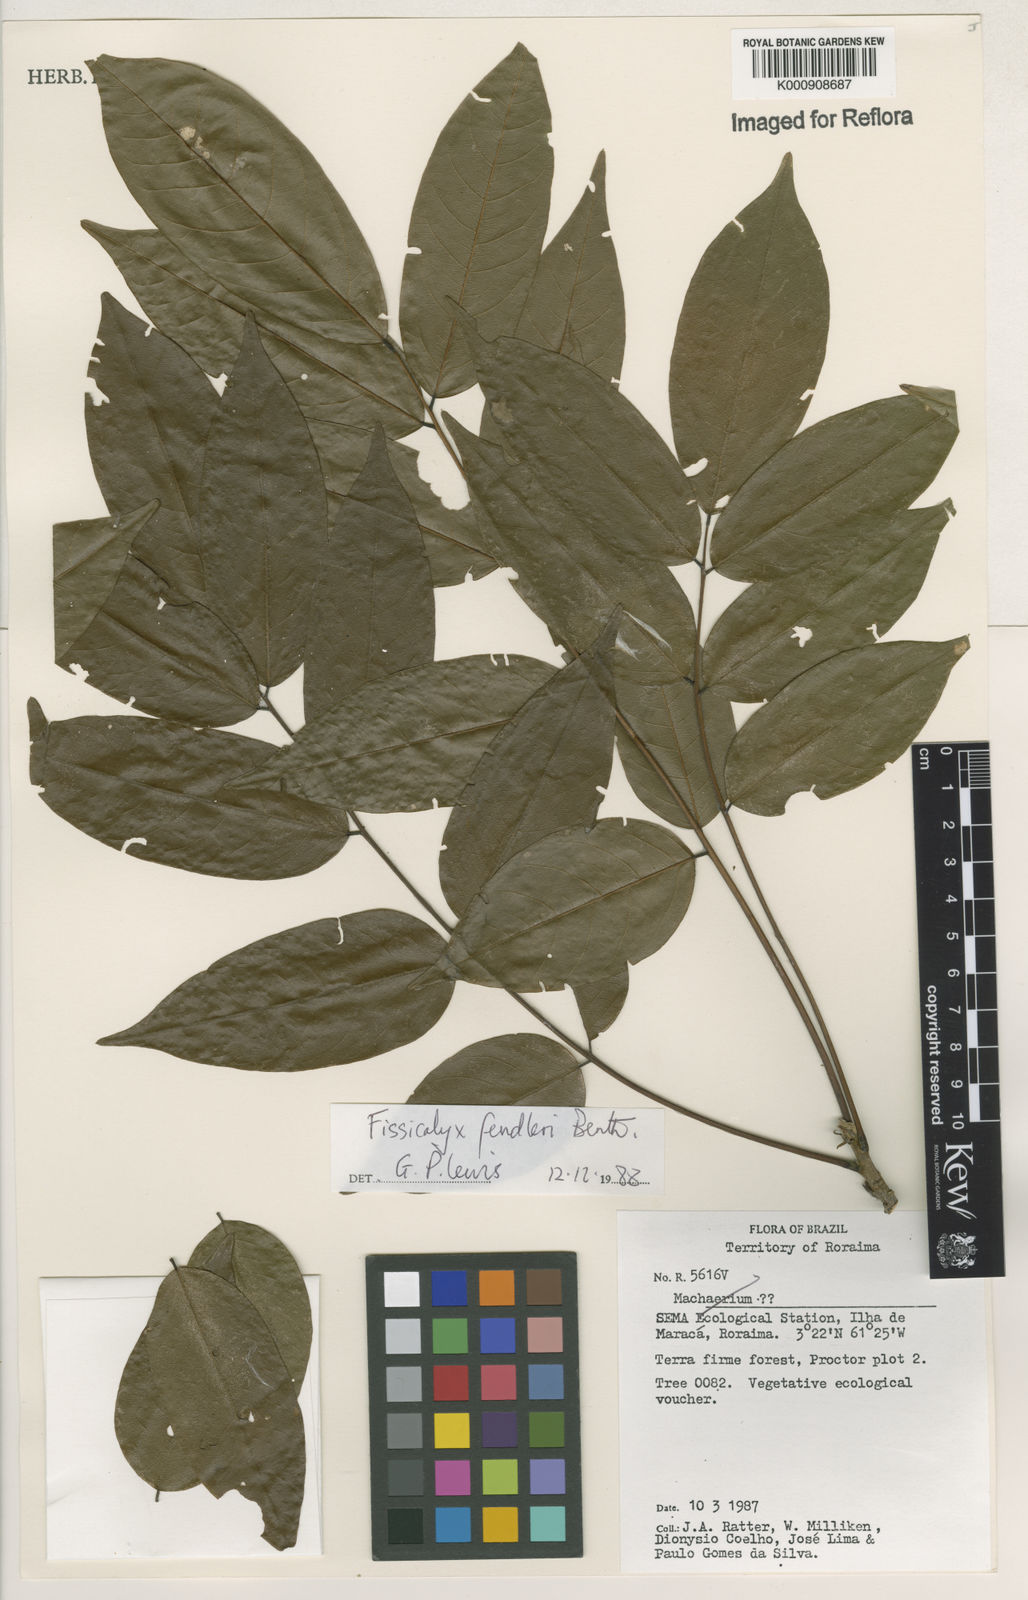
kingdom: Plantae
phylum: Tracheophyta
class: Magnoliopsida
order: Fabales
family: Fabaceae
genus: Fissicalyx
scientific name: Fissicalyx fendleri
